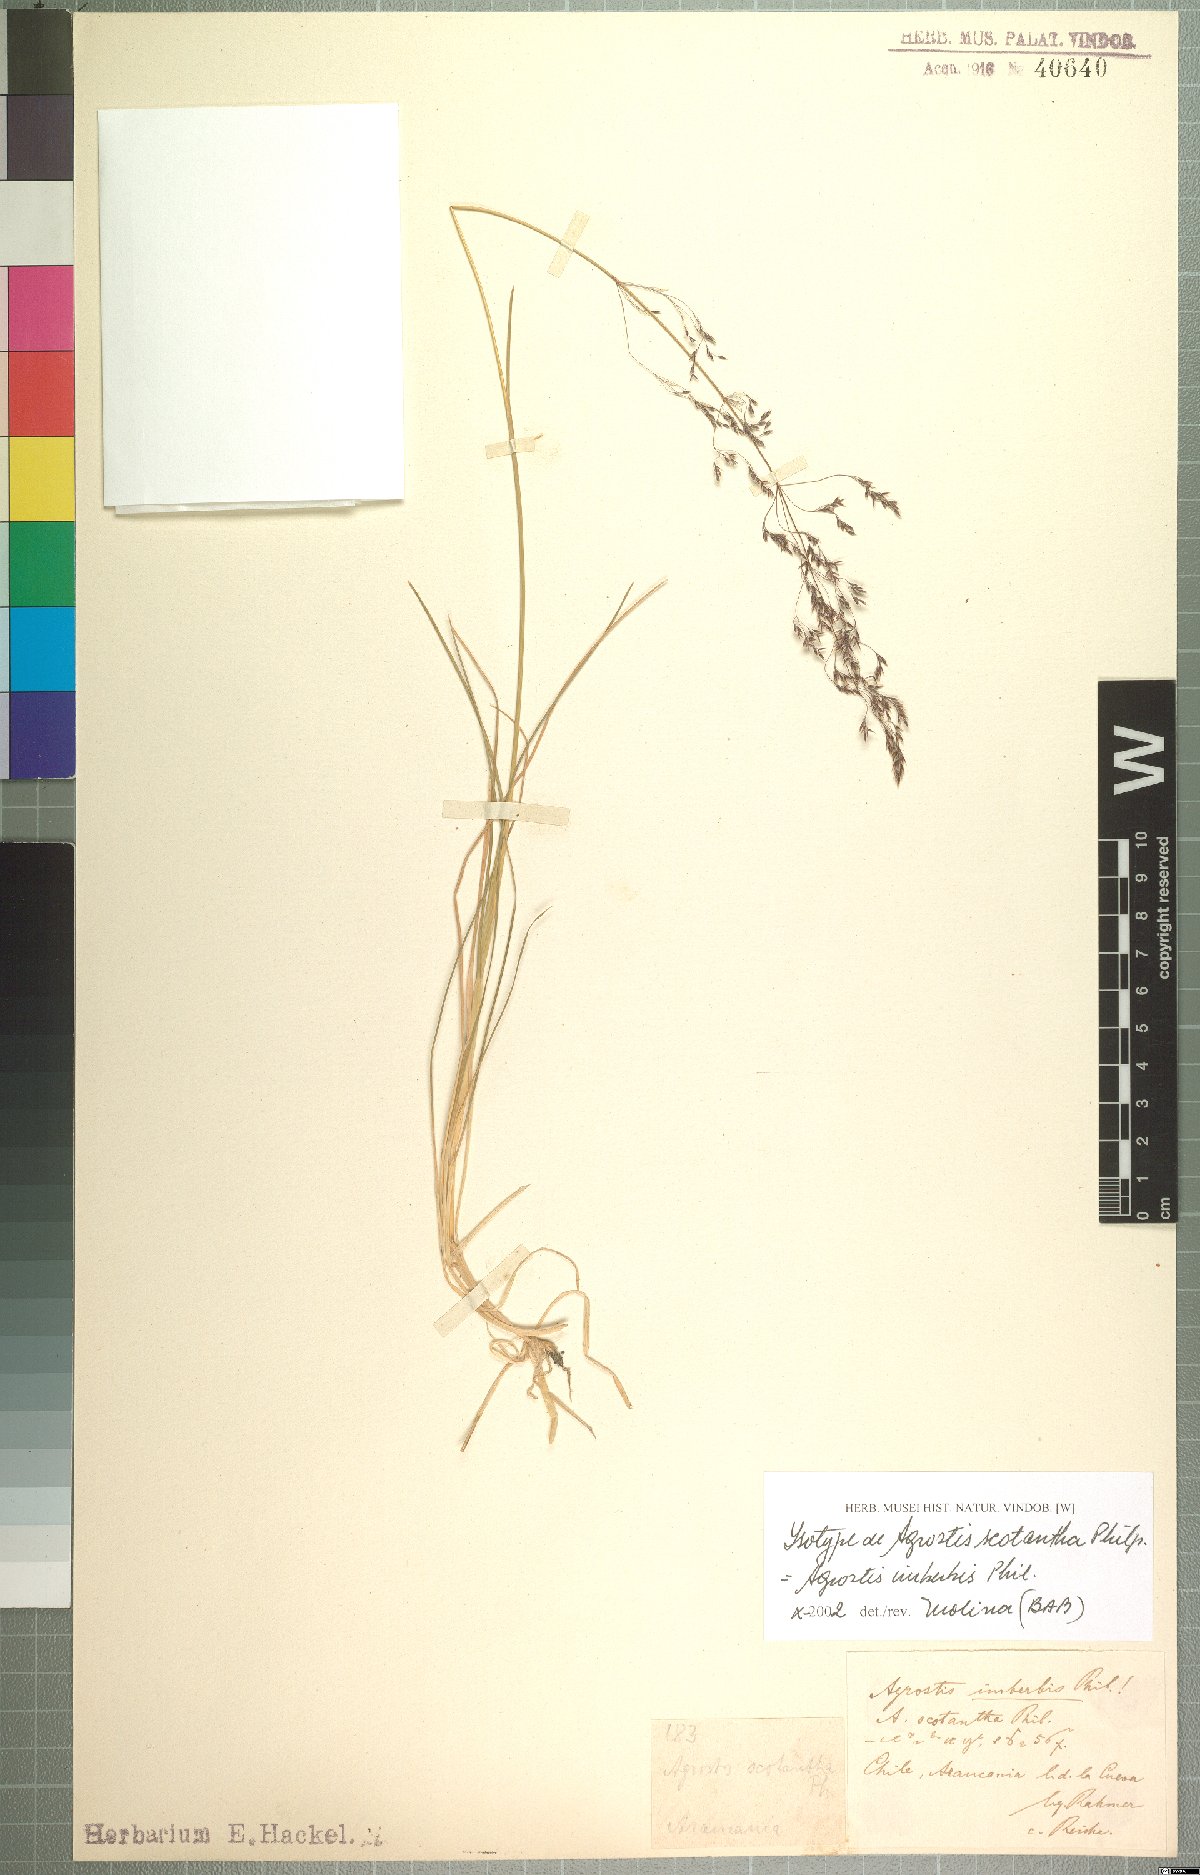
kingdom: Plantae
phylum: Tracheophyta
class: Liliopsida
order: Poales
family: Poaceae
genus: Agrostis
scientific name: Agrostis imberbis
